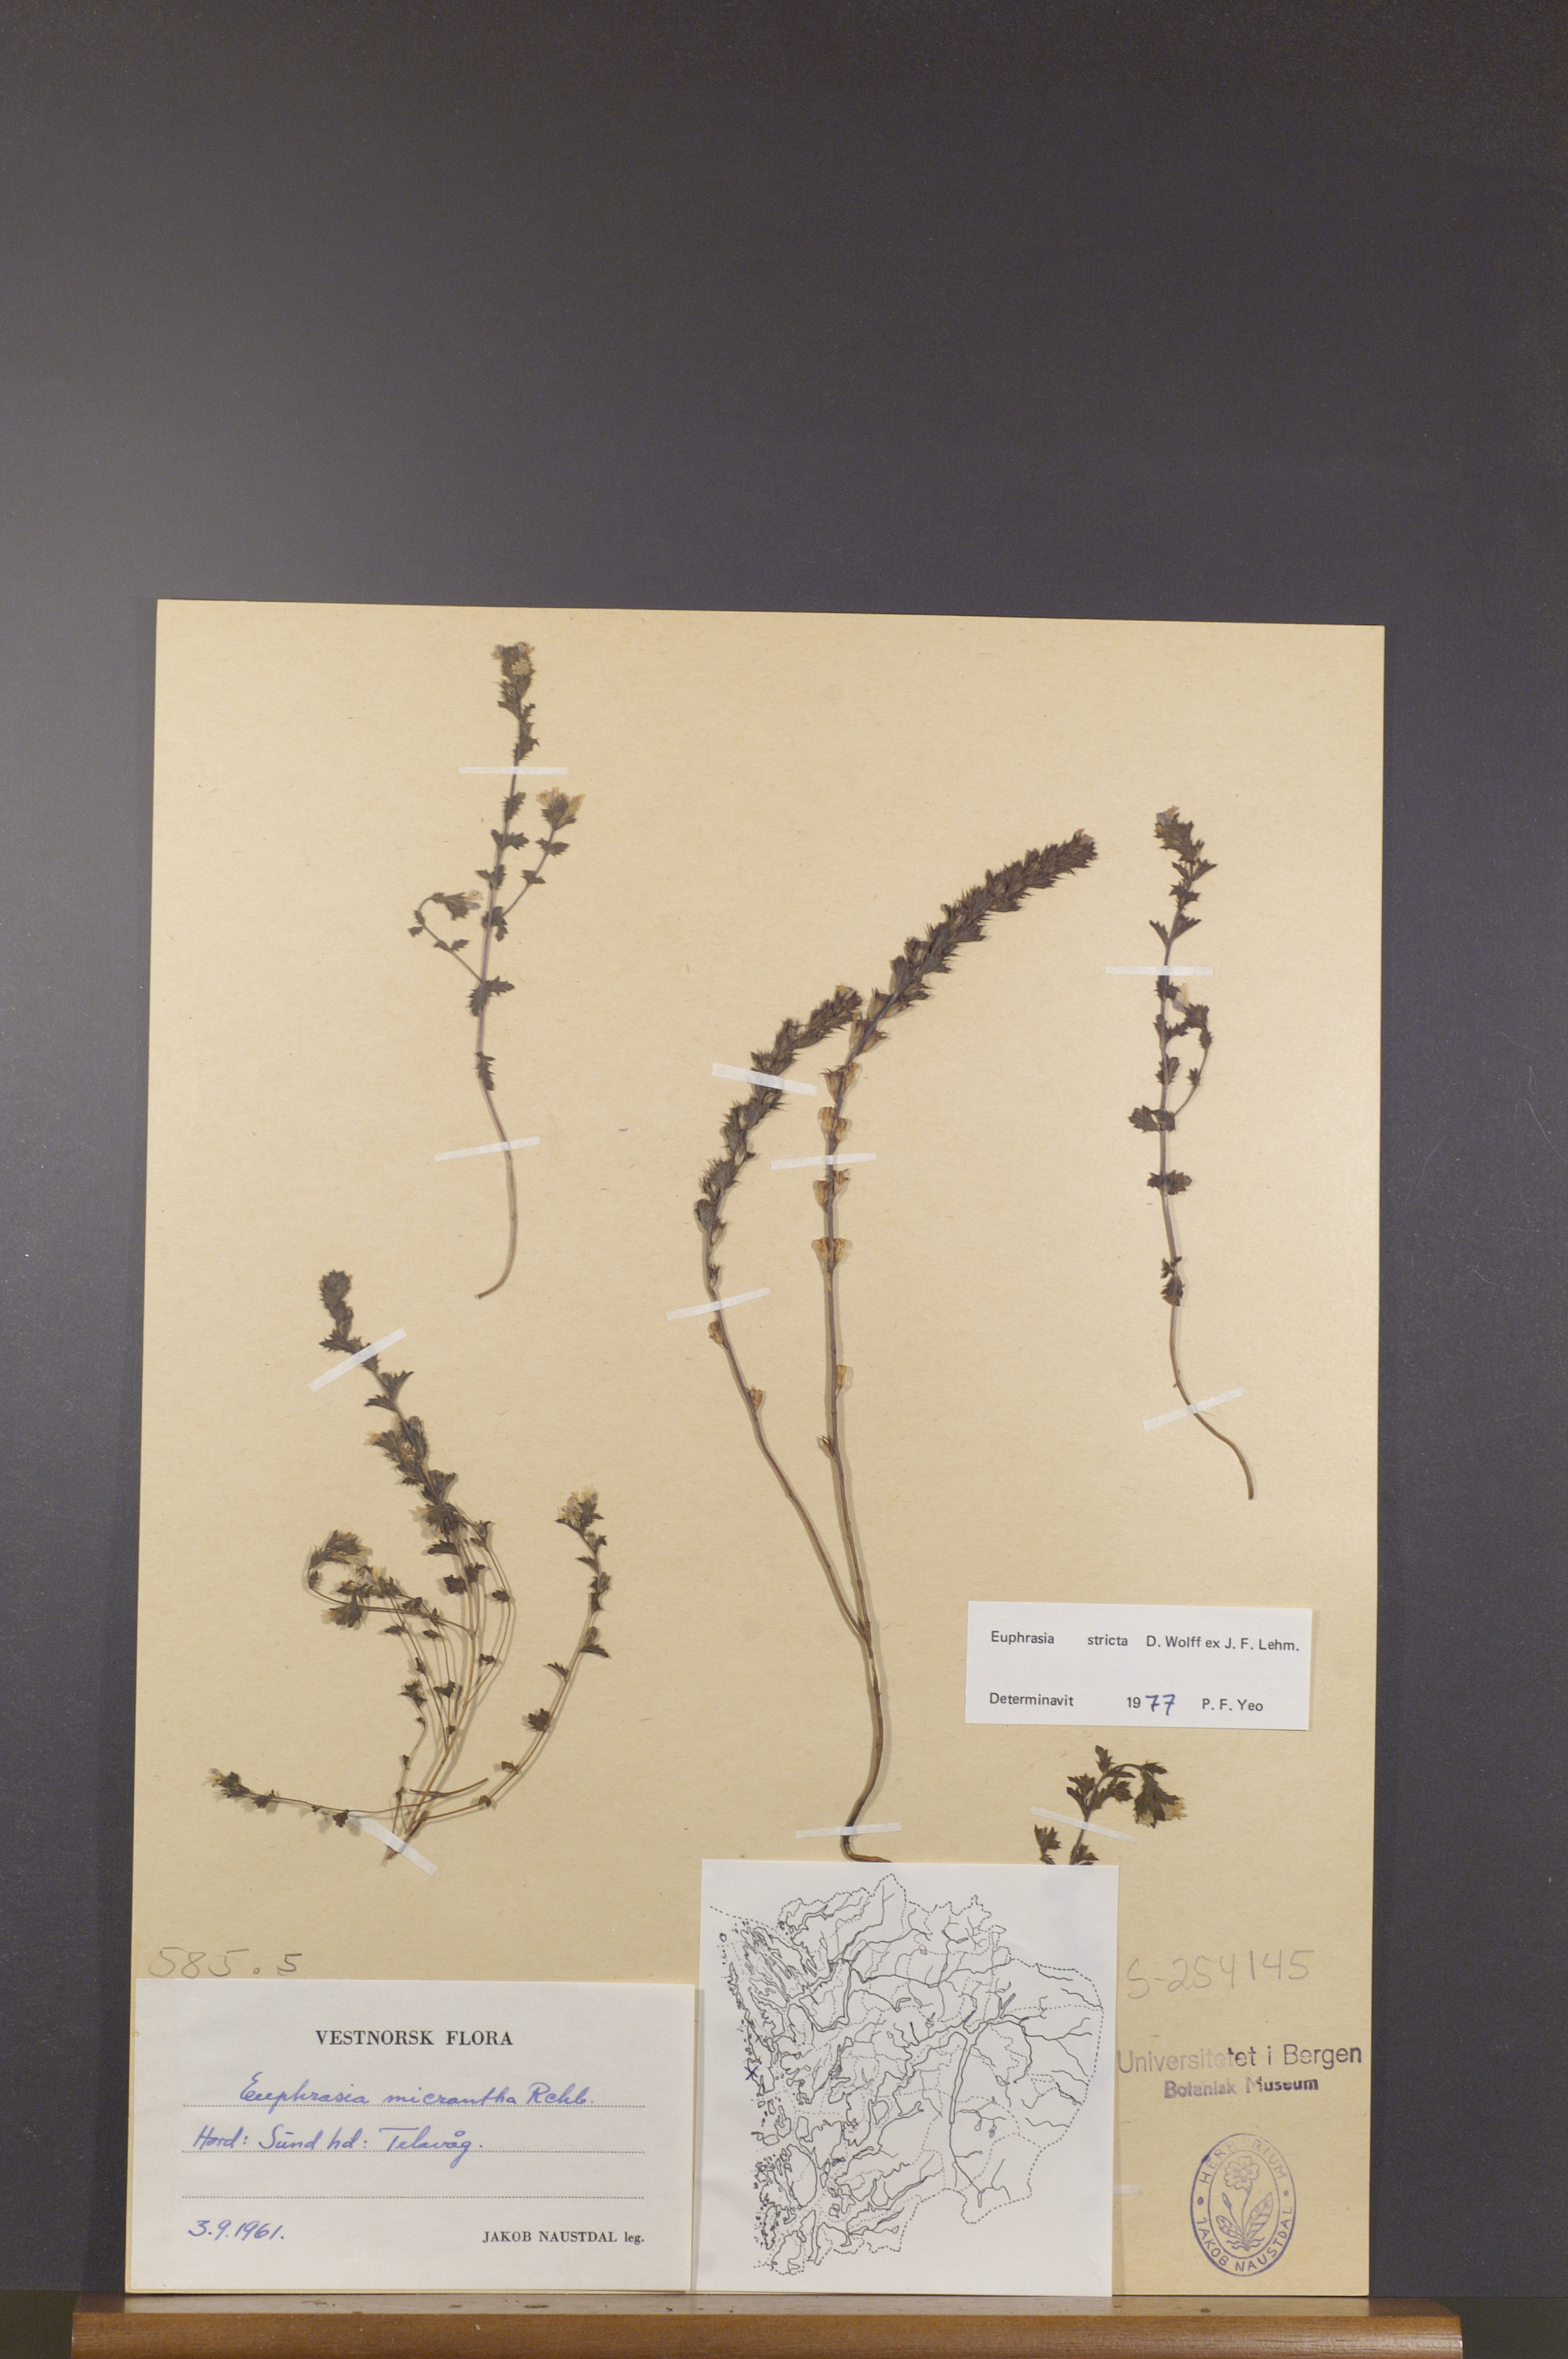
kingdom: Plantae
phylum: Tracheophyta
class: Magnoliopsida
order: Lamiales
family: Orobanchaceae
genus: Euphrasia
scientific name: Euphrasia stricta
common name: Drug eyebright
